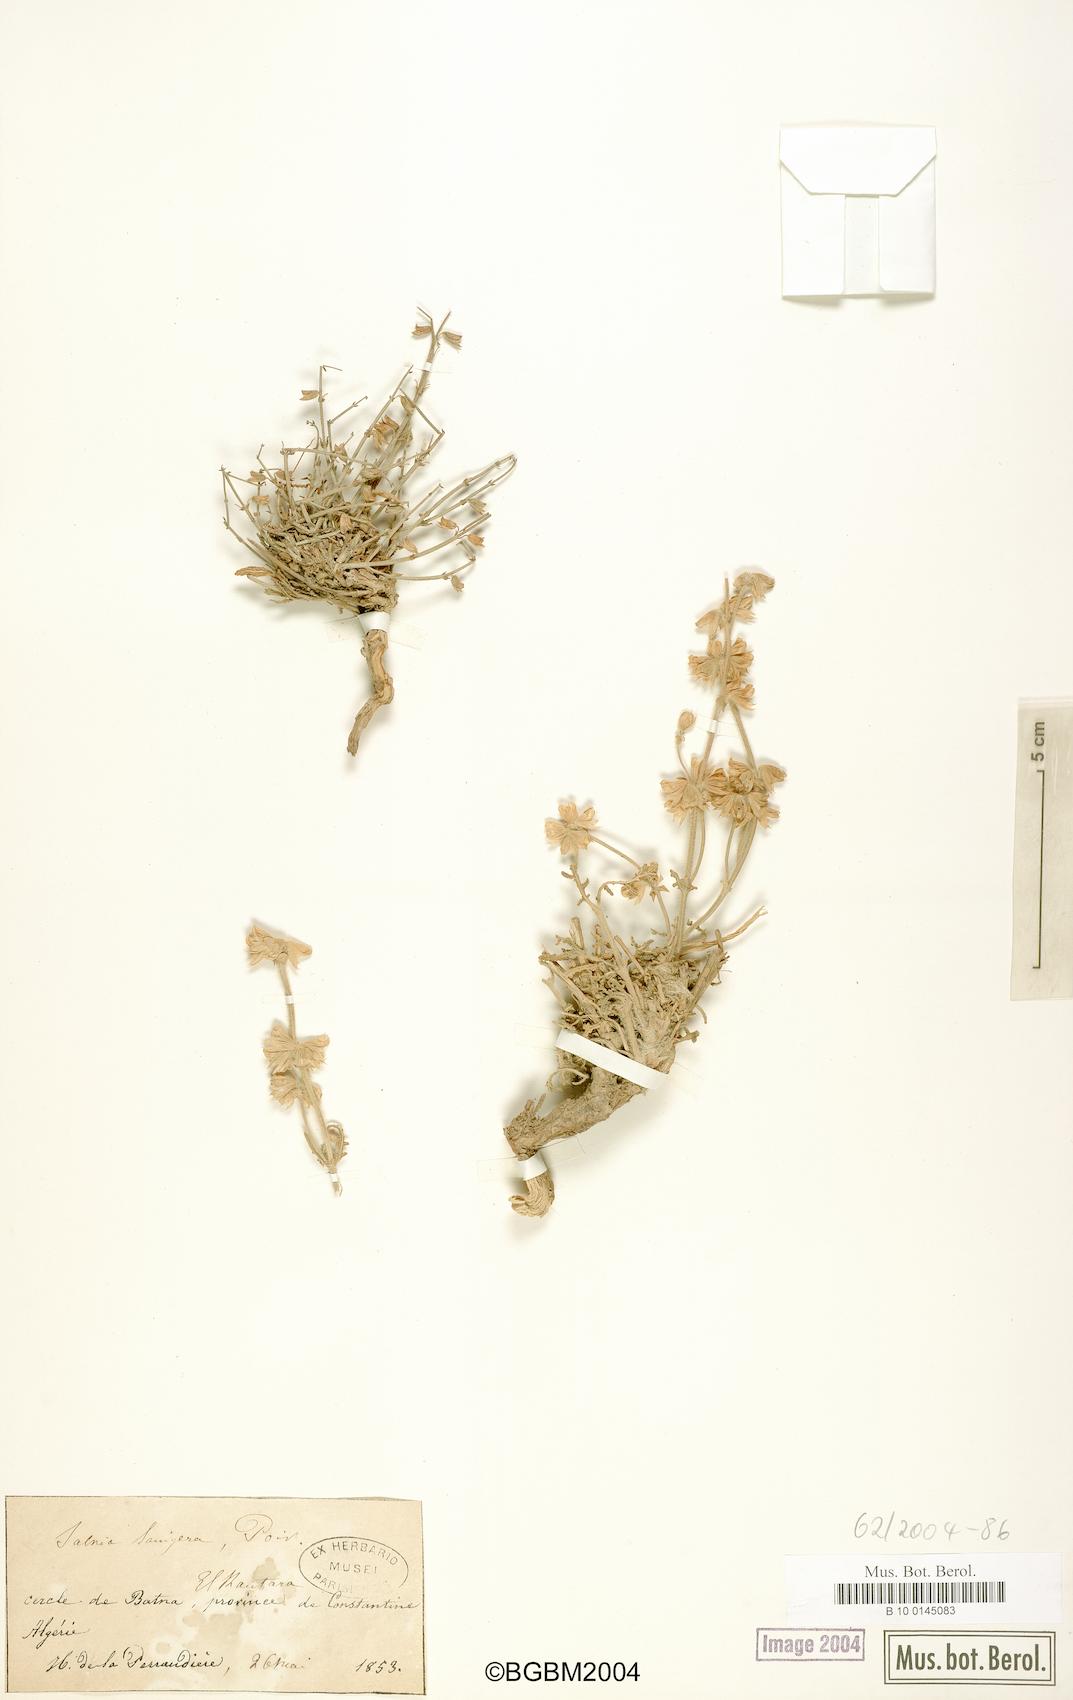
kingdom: Plantae
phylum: Tracheophyta
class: Magnoliopsida
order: Lamiales
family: Lamiaceae
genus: Salvia
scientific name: Salvia lanigera
